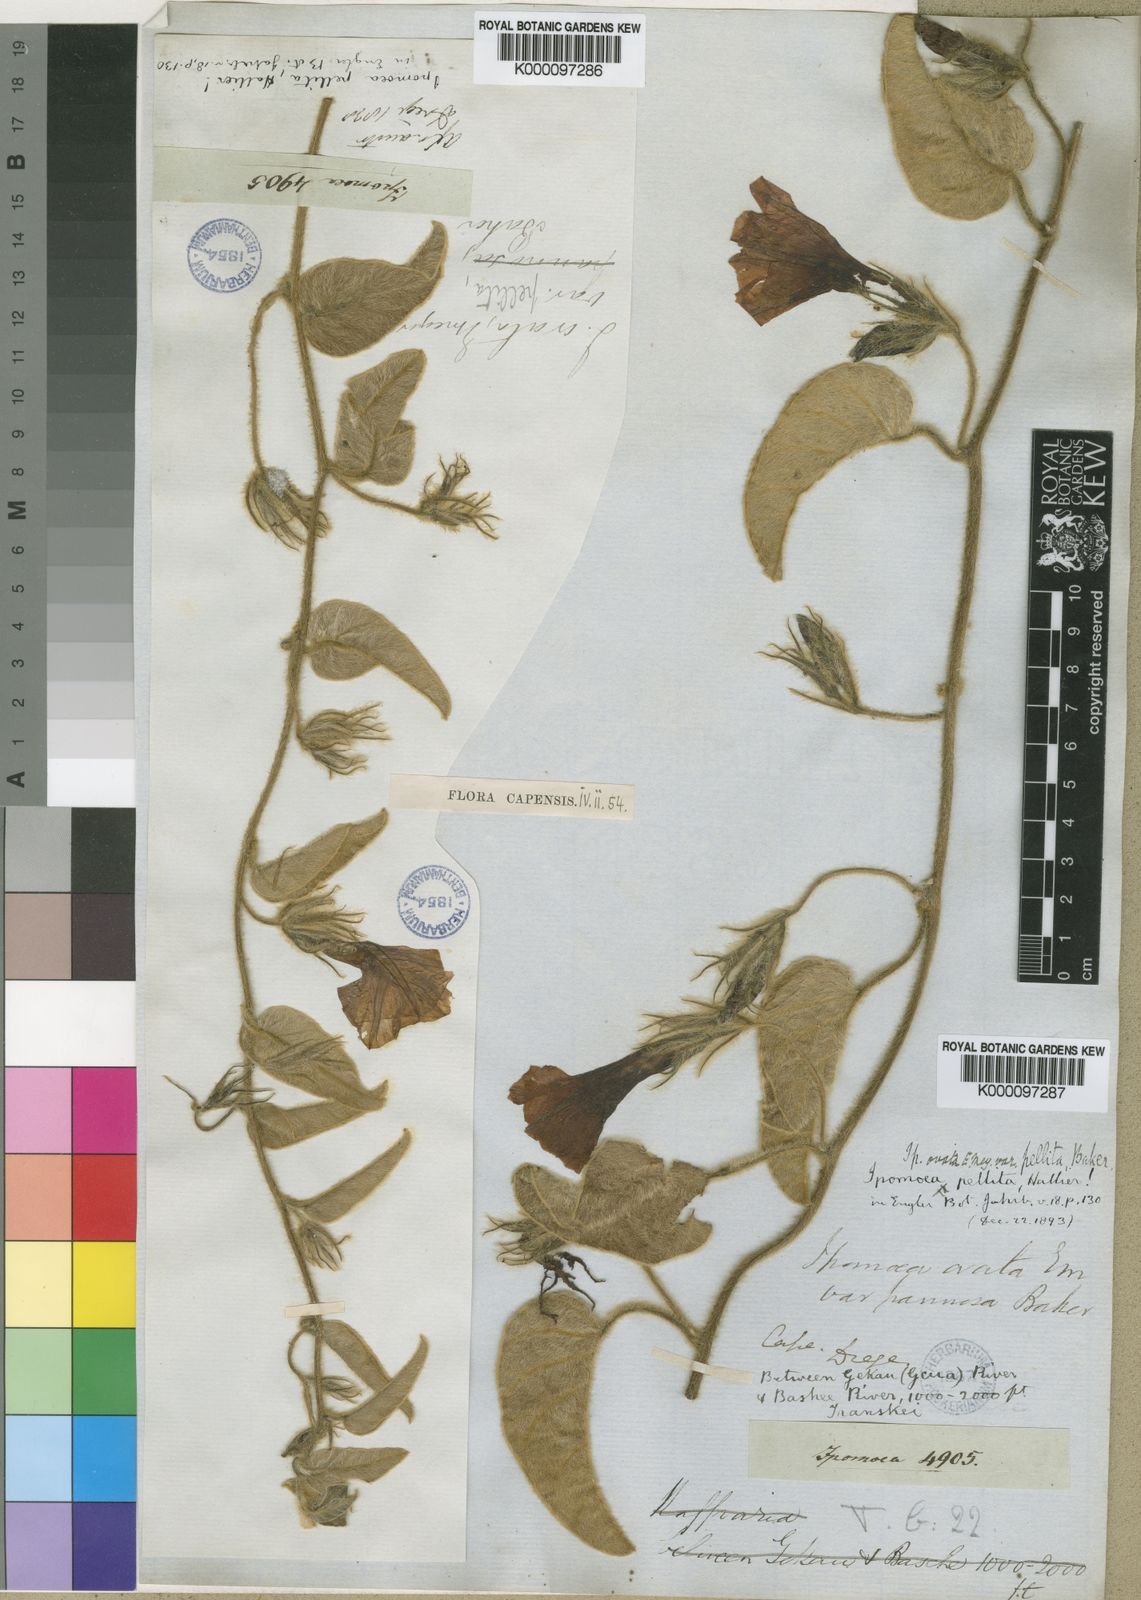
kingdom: Plantae
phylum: Tracheophyta
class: Magnoliopsida
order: Solanales
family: Convolvulaceae
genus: Ipomoea
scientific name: Ipomoea pellita
